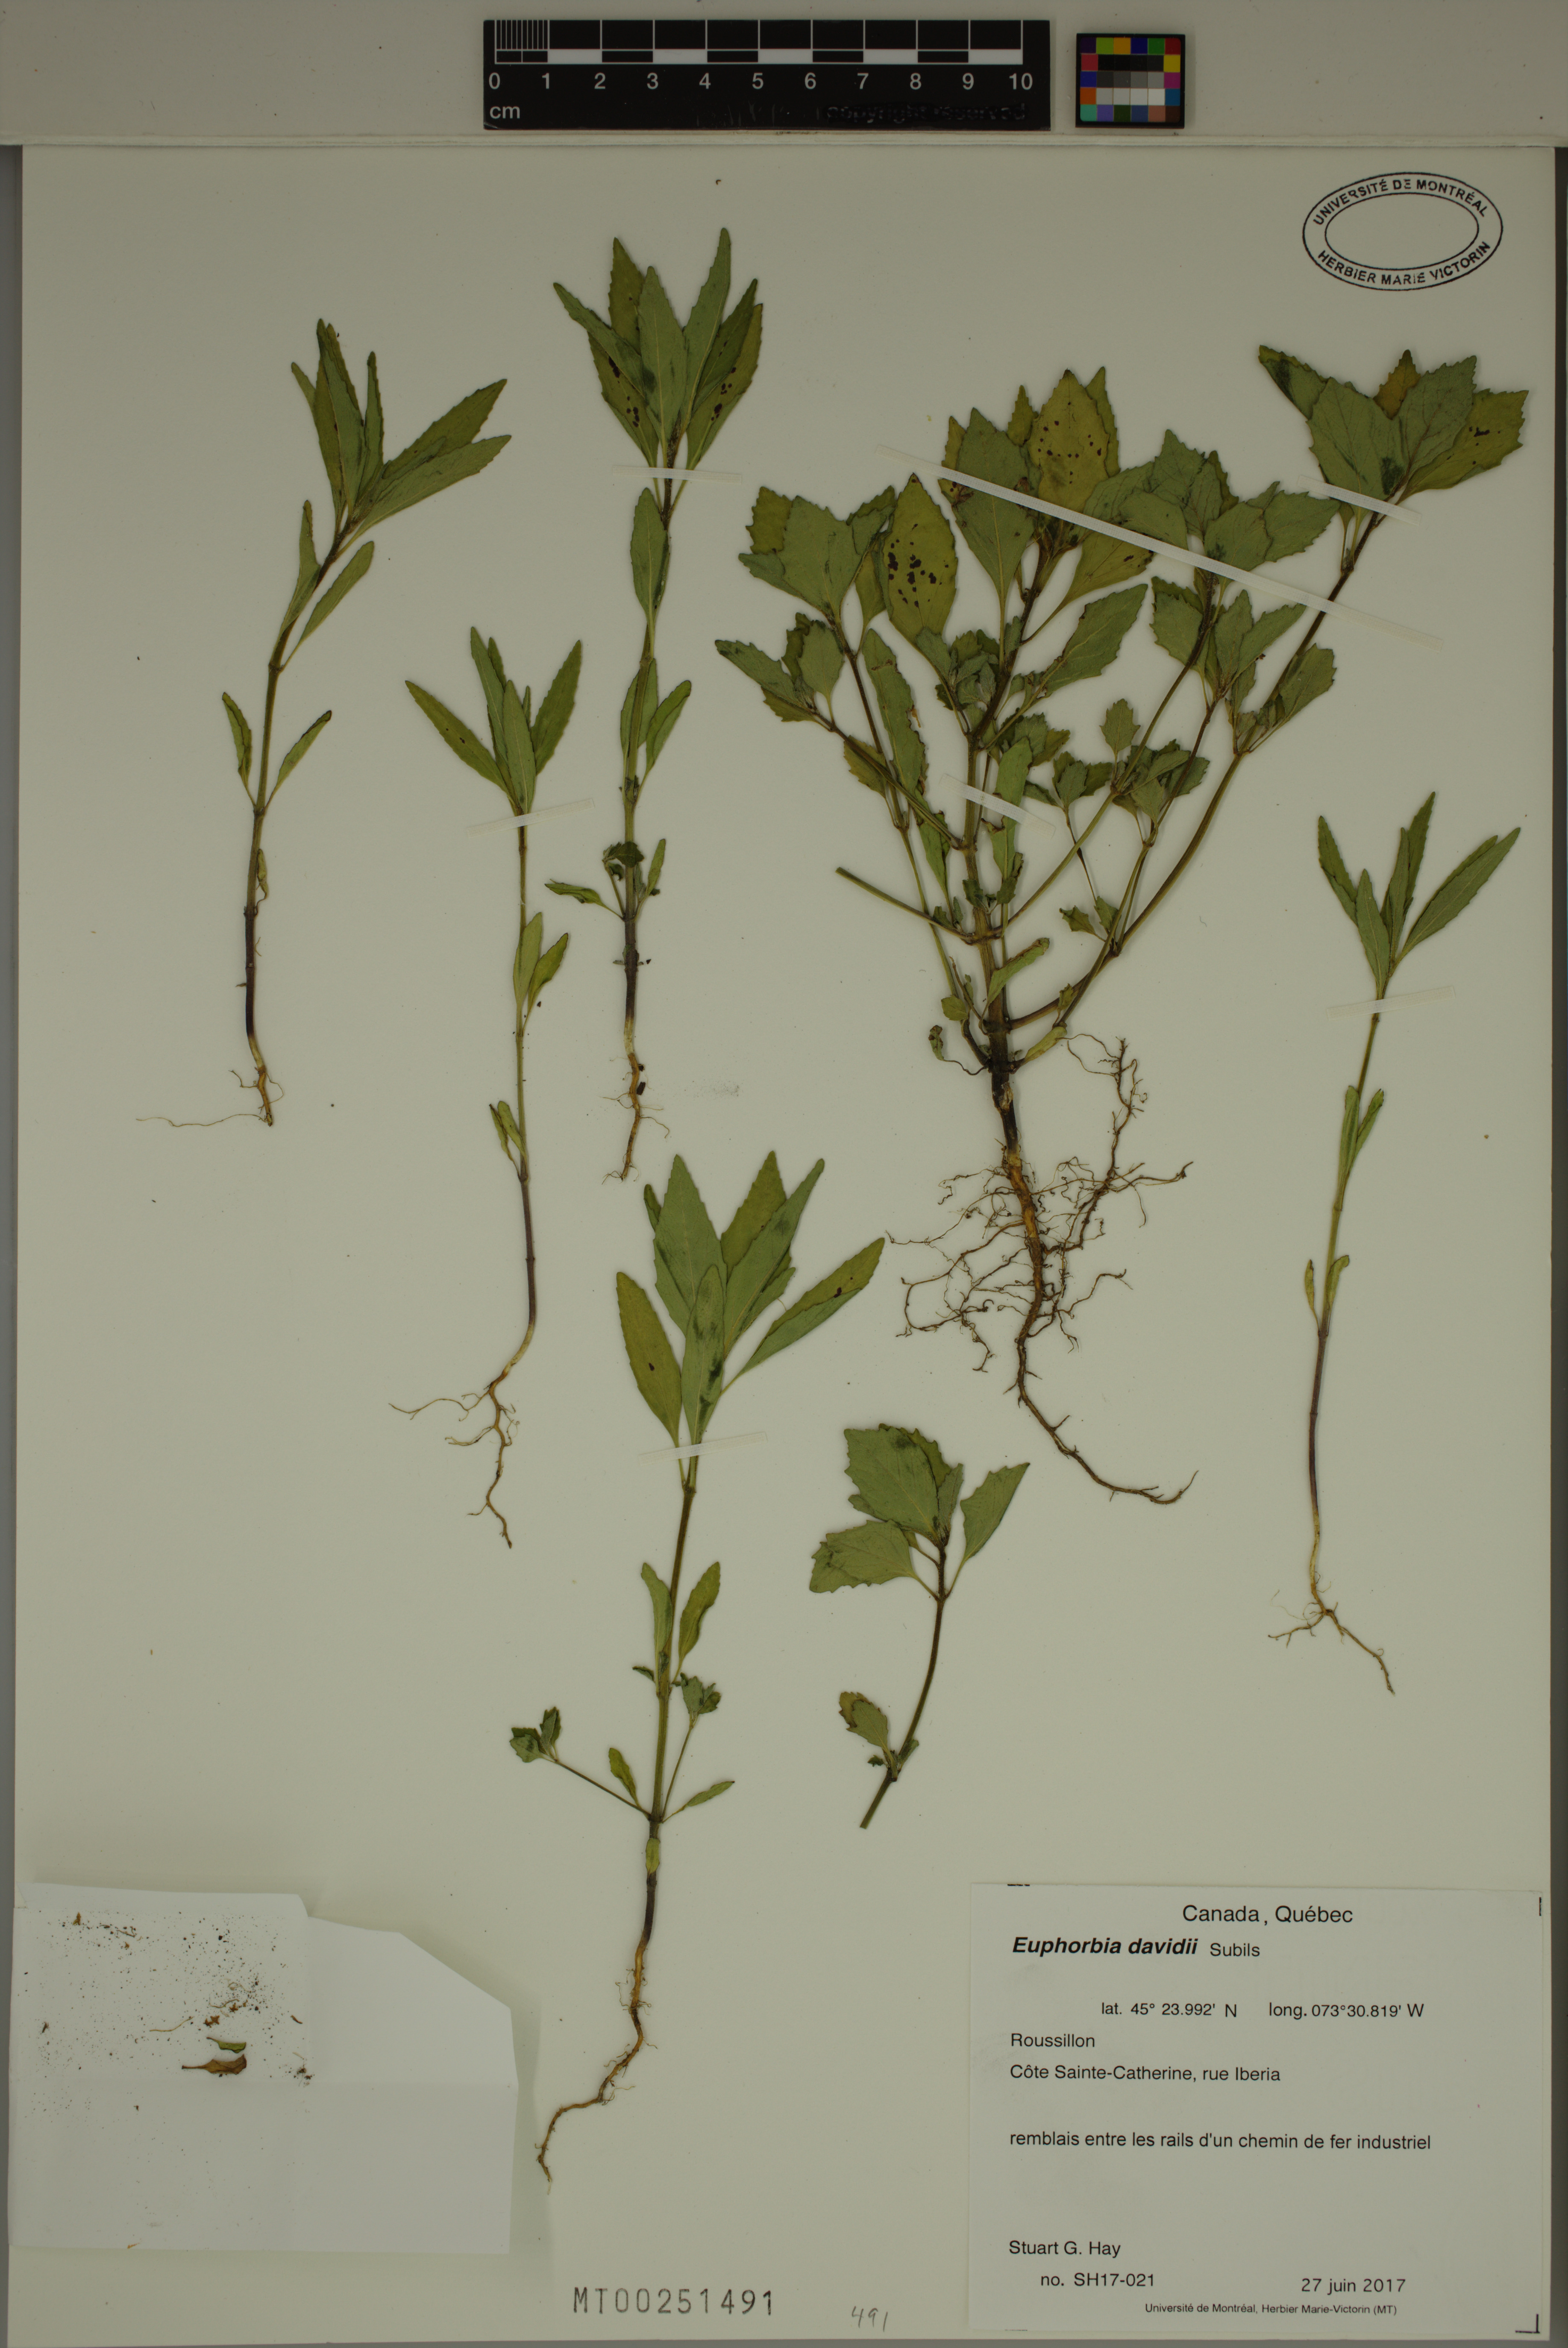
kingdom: Plantae
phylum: Tracheophyta
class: Magnoliopsida
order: Malpighiales
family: Euphorbiaceae
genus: Euphorbia
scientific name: Euphorbia davidii
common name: David's spurge
